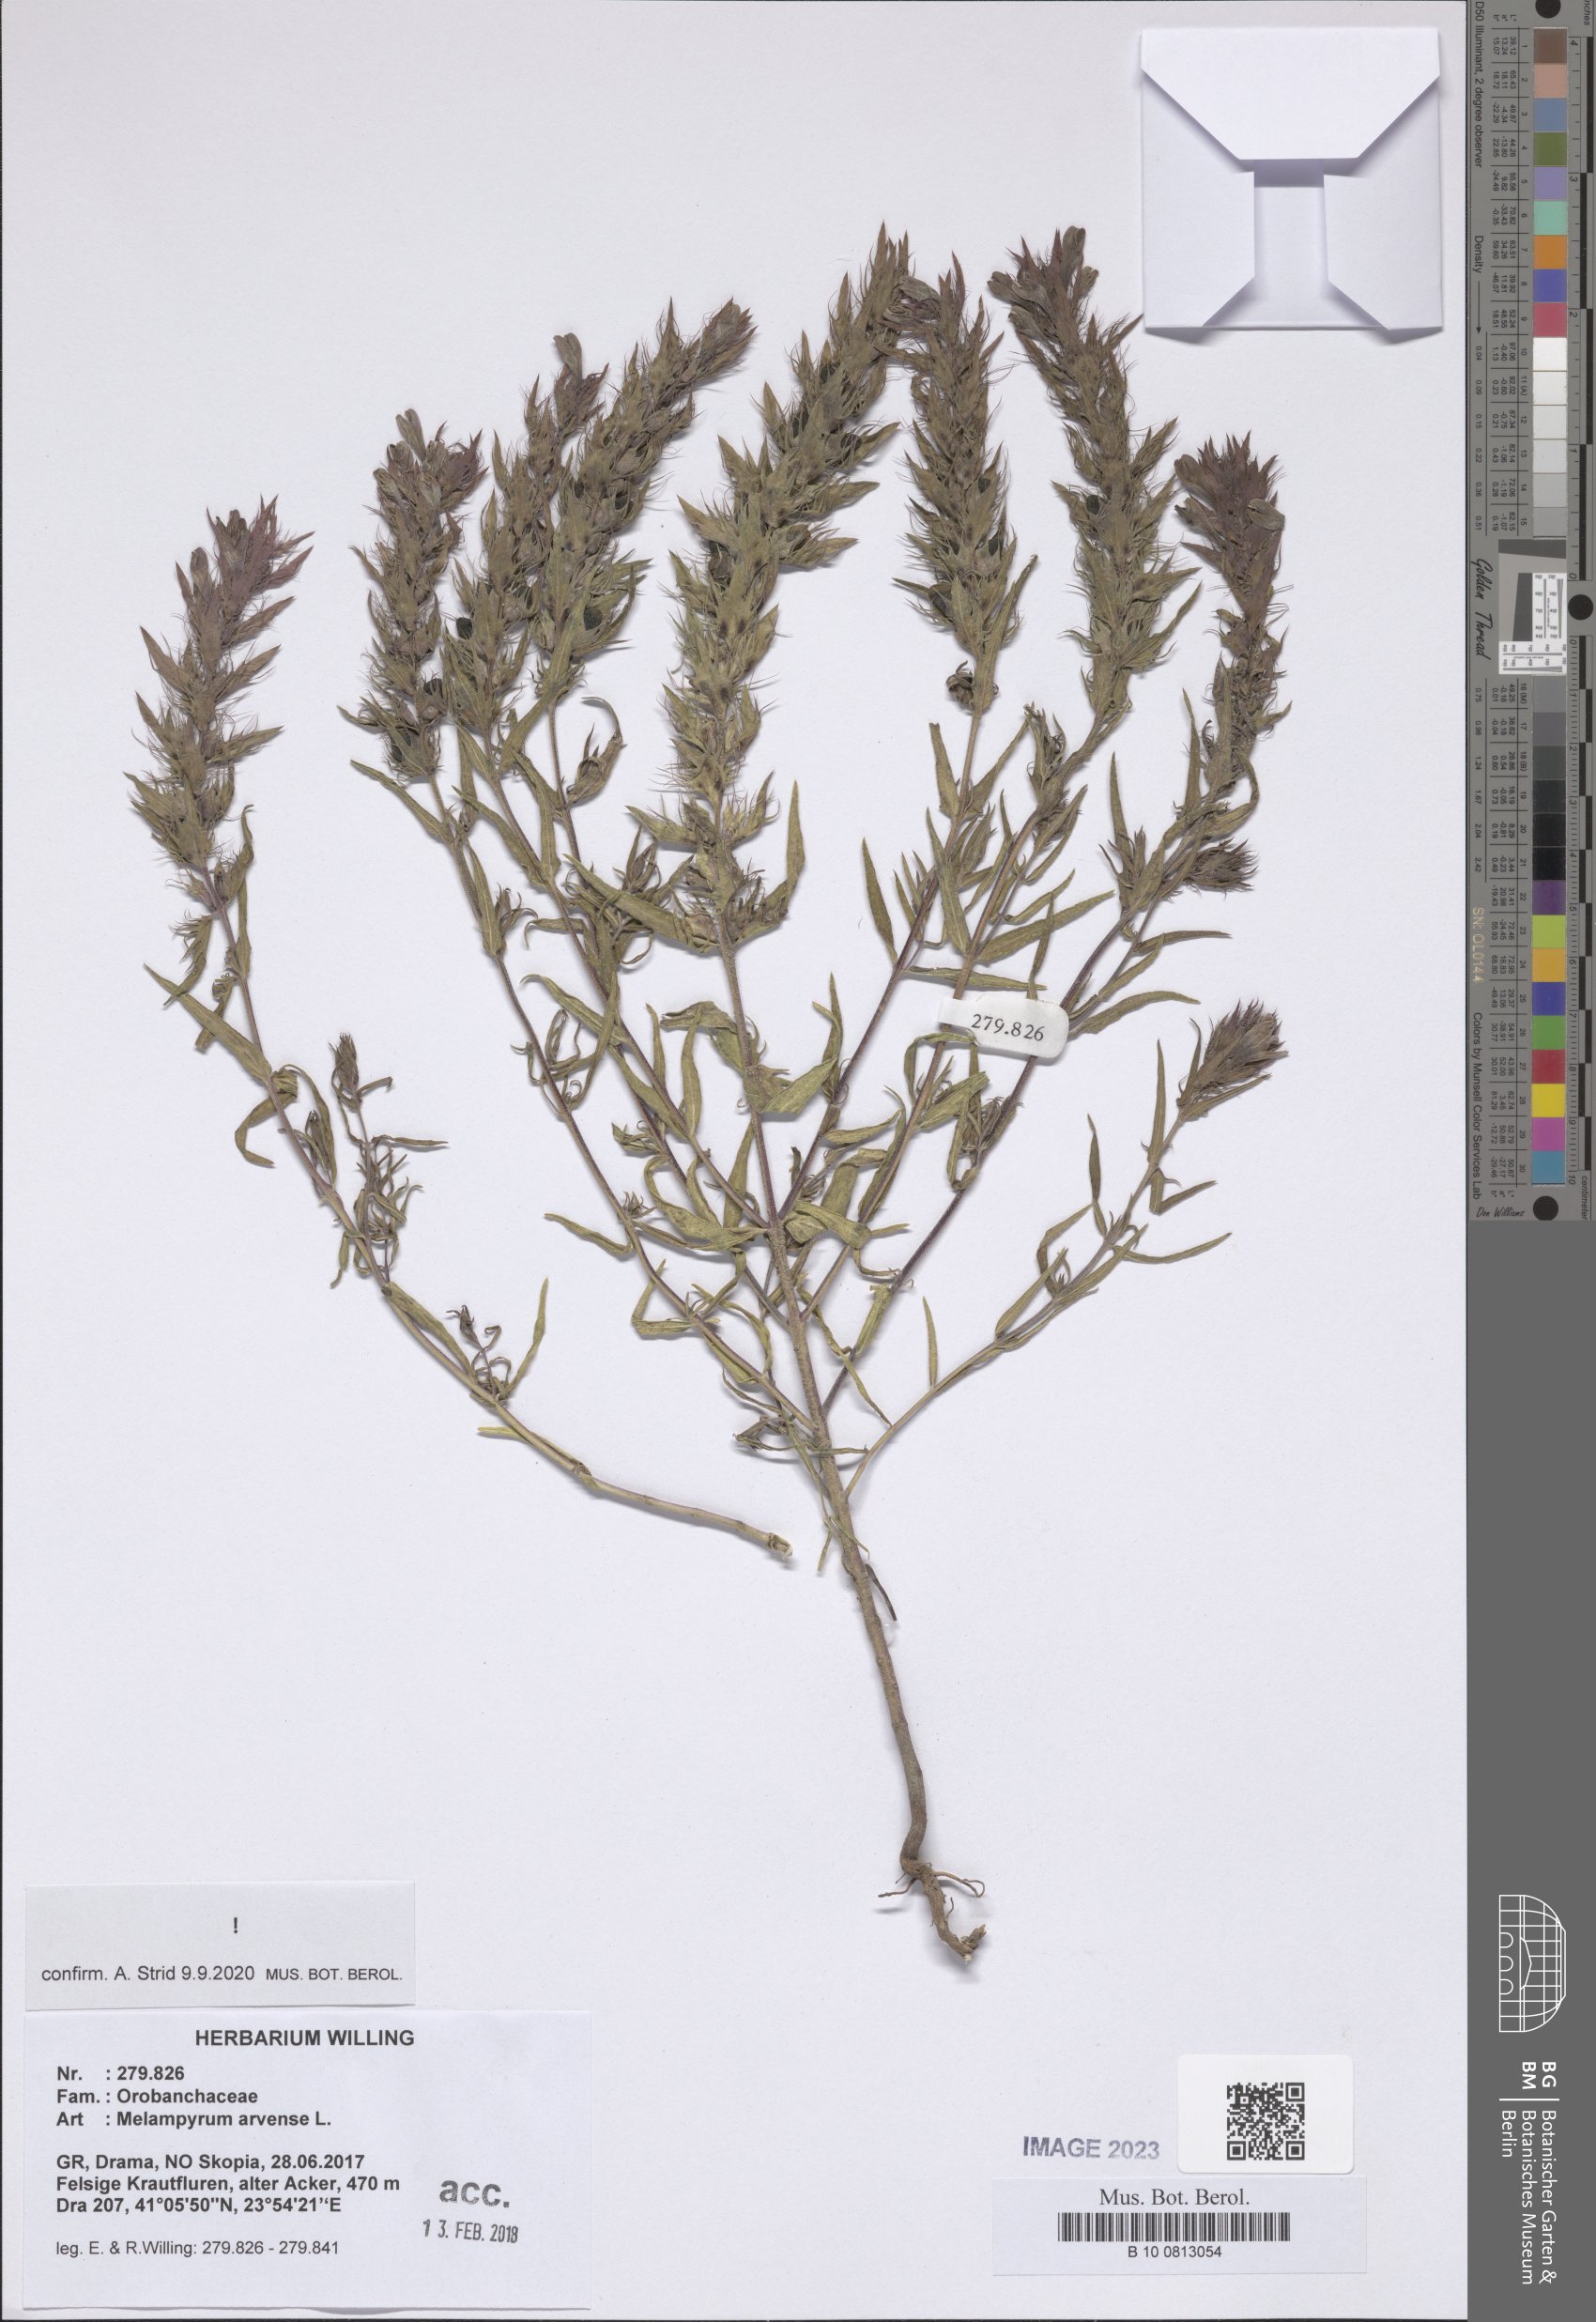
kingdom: Plantae
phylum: Tracheophyta
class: Magnoliopsida
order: Lamiales
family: Orobanchaceae
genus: Melampyrum
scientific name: Melampyrum arvense
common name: Field cow-wheat
